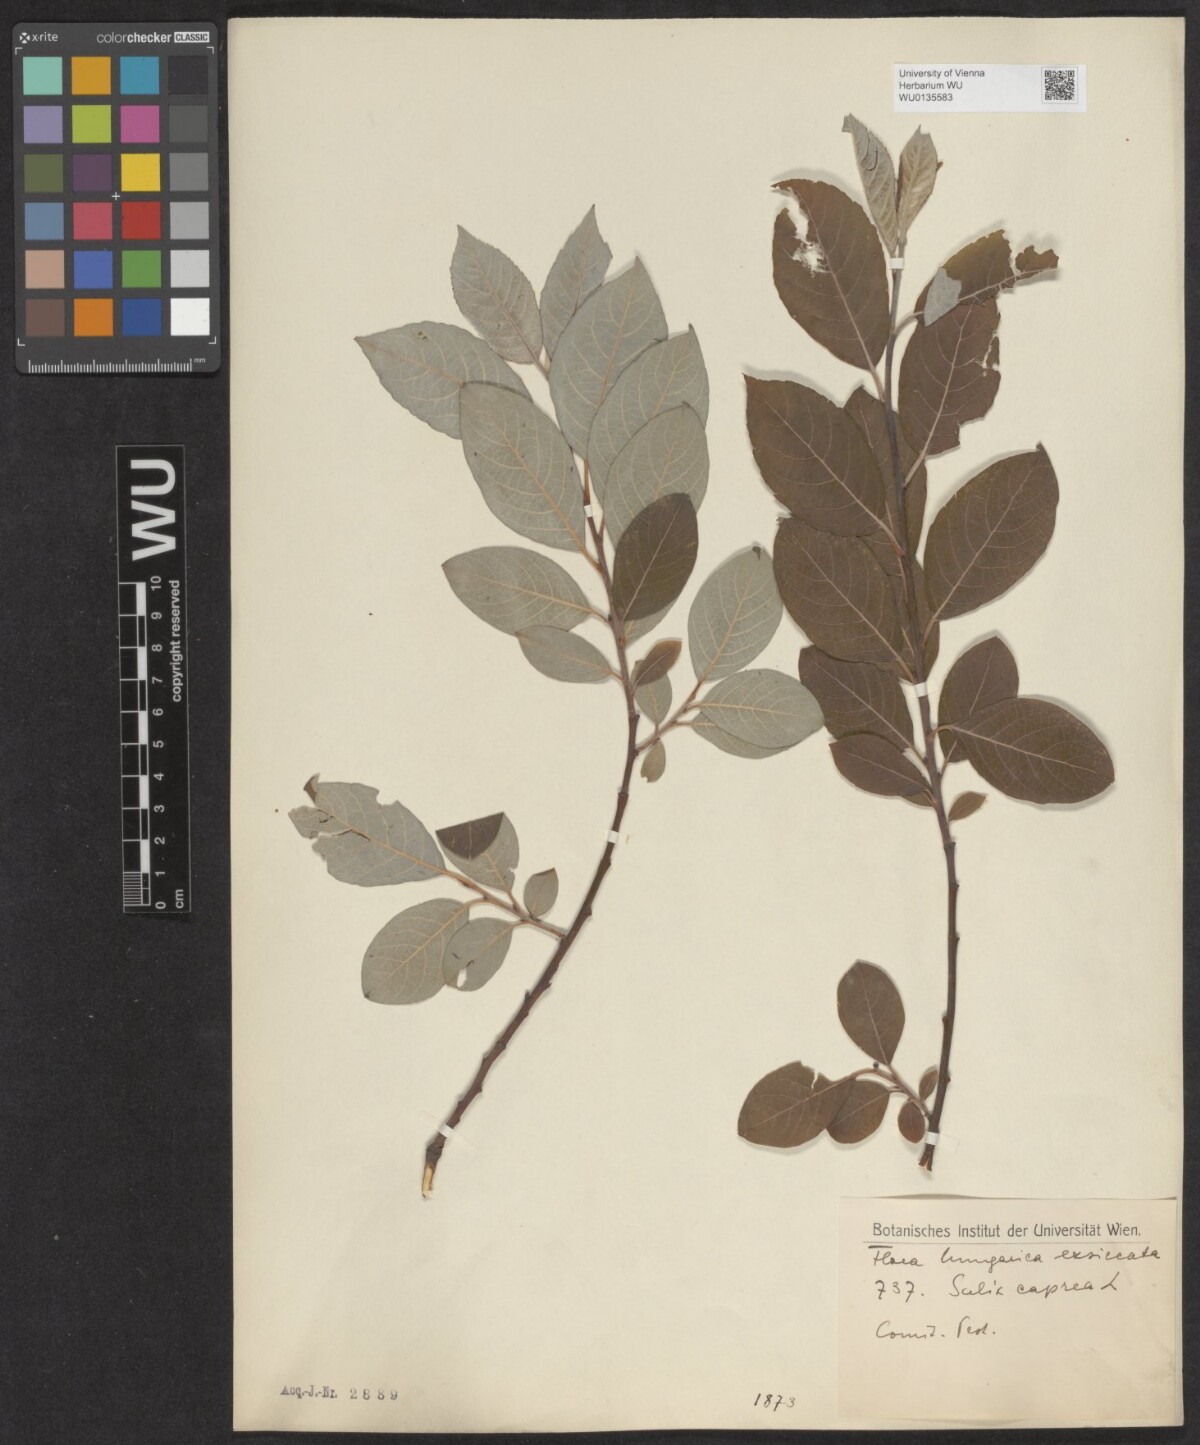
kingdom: Plantae
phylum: Tracheophyta
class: Magnoliopsida
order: Malpighiales
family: Salicaceae
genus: Salix
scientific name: Salix caprea
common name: Goat willow
